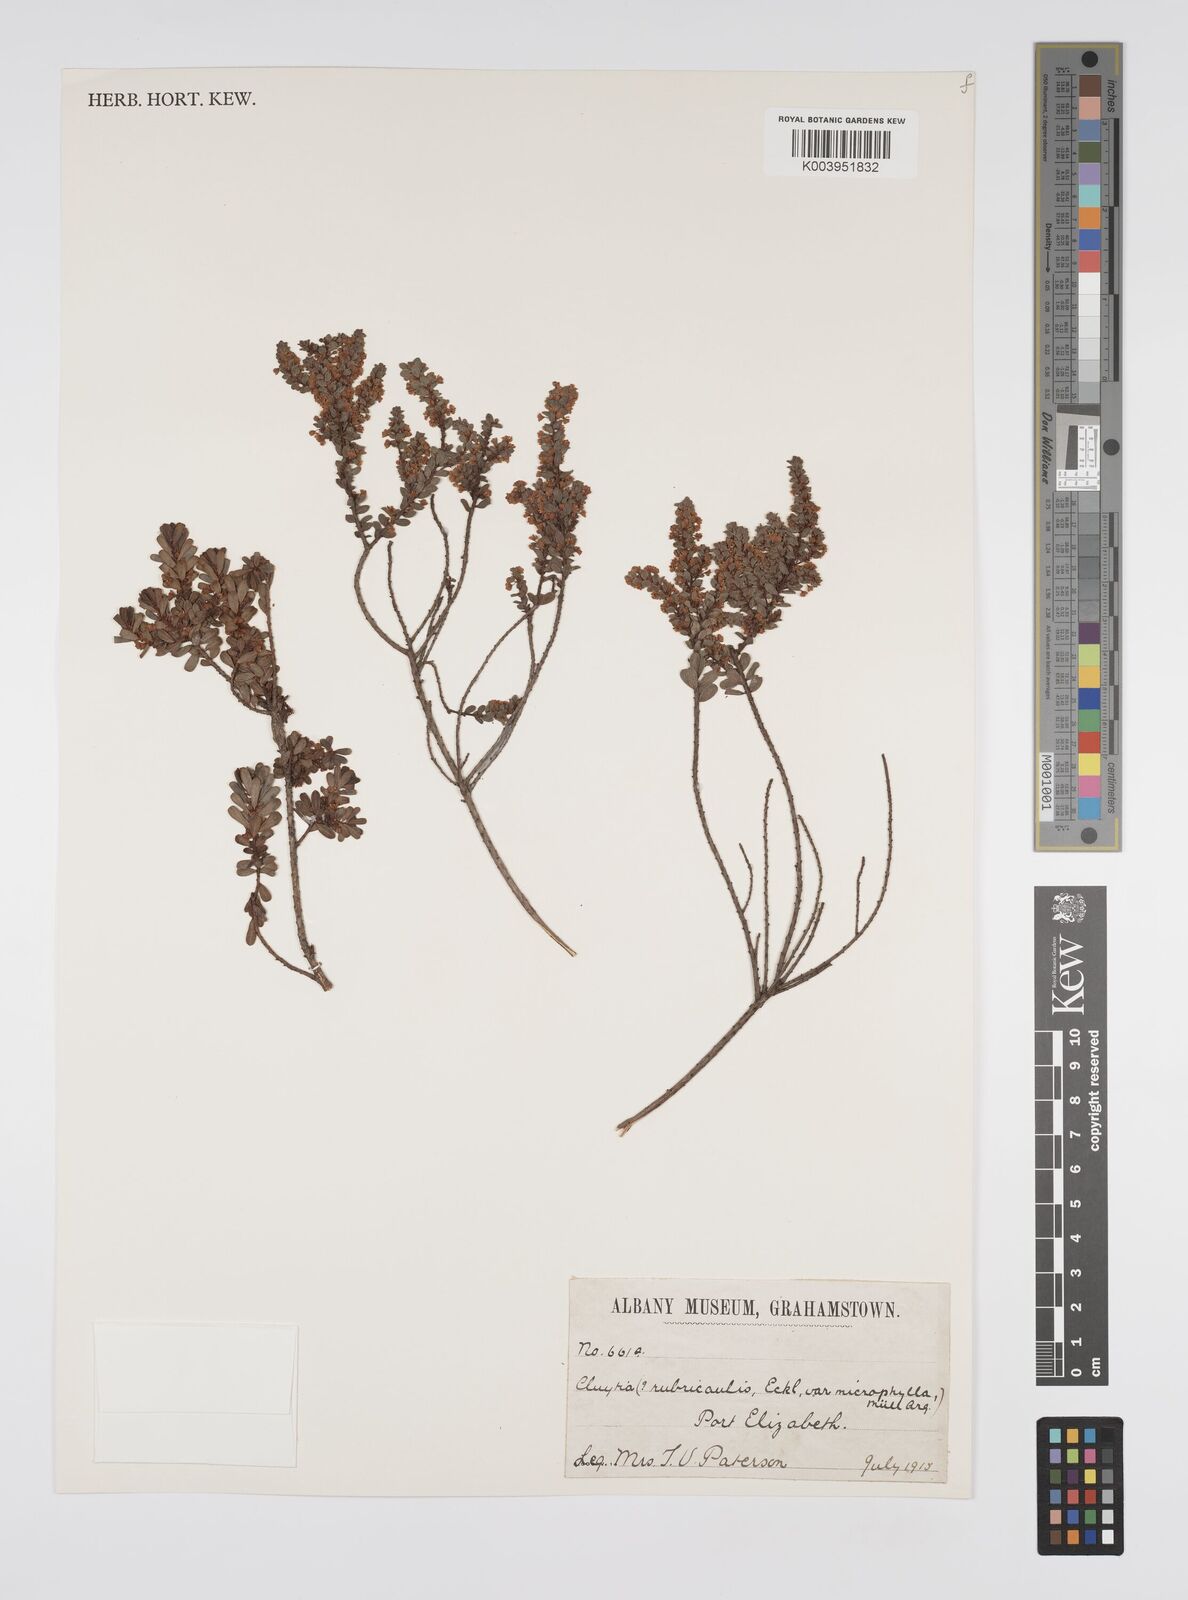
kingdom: Plantae
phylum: Tracheophyta
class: Magnoliopsida
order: Malpighiales
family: Peraceae
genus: Clutia
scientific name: Clutia rubricaulis
